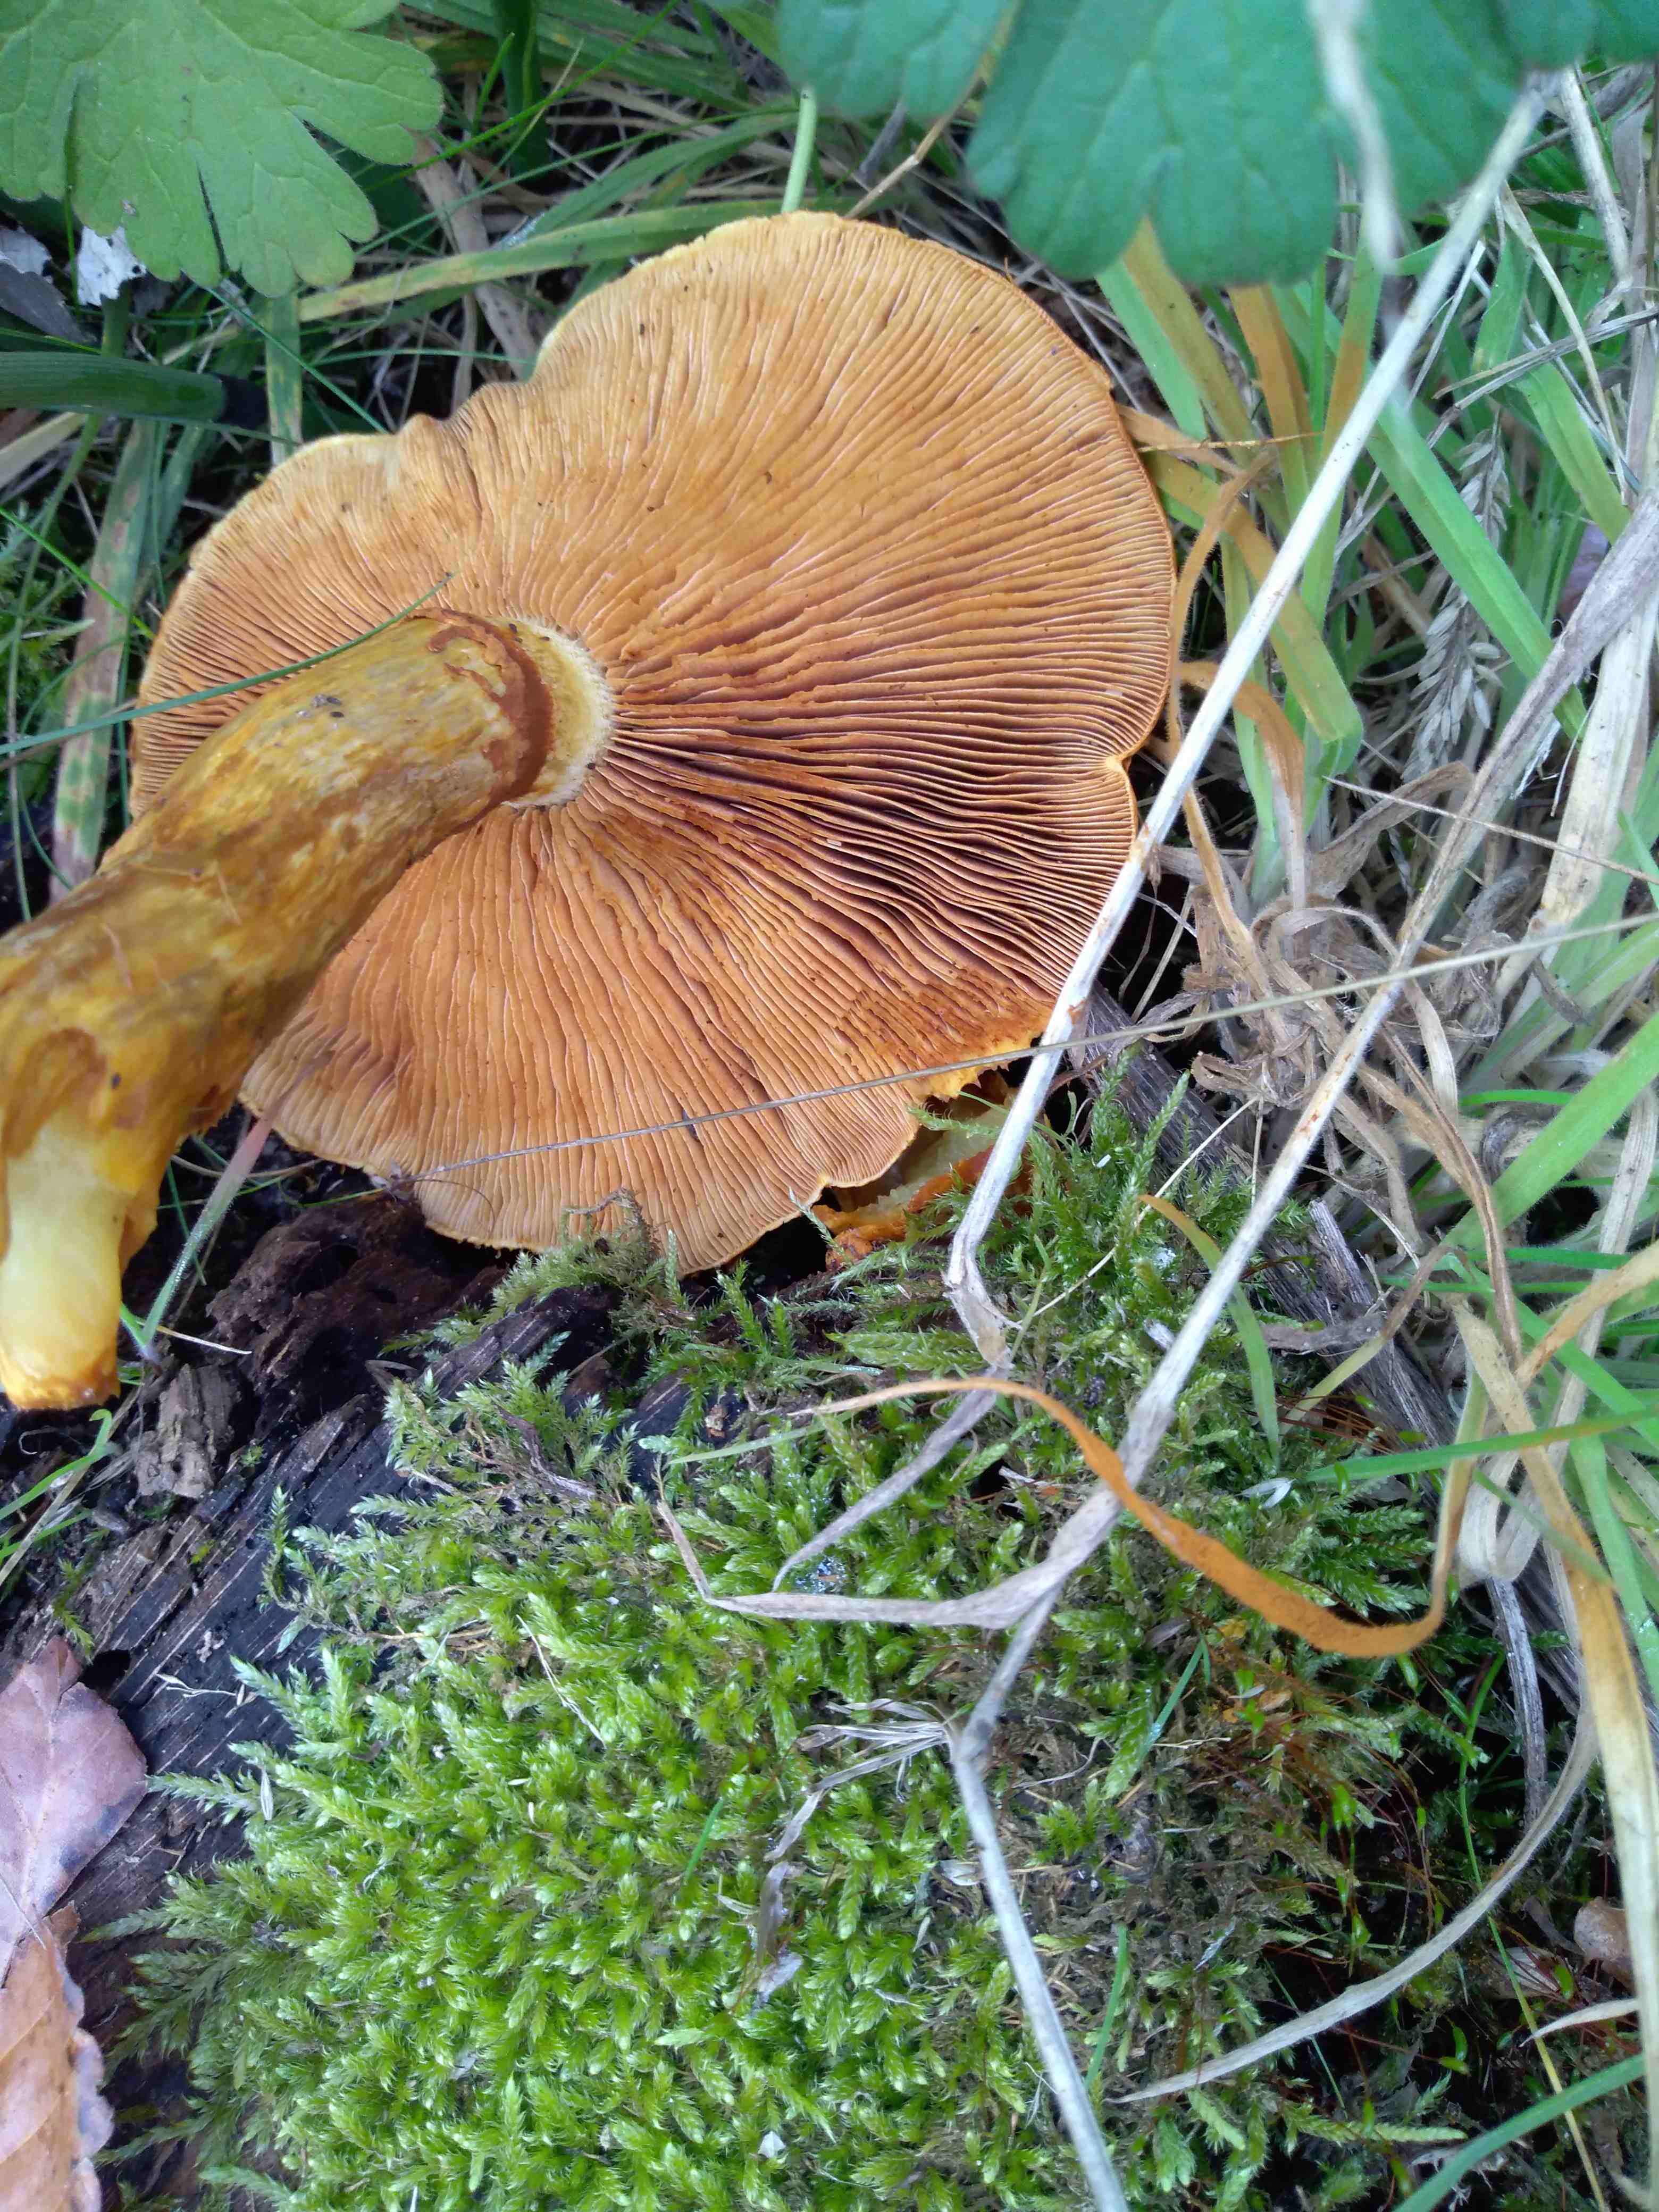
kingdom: Fungi
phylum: Basidiomycota
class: Agaricomycetes
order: Agaricales
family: Hymenogastraceae
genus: Gymnopilus
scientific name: Gymnopilus spectabilis
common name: fibret flammehat
